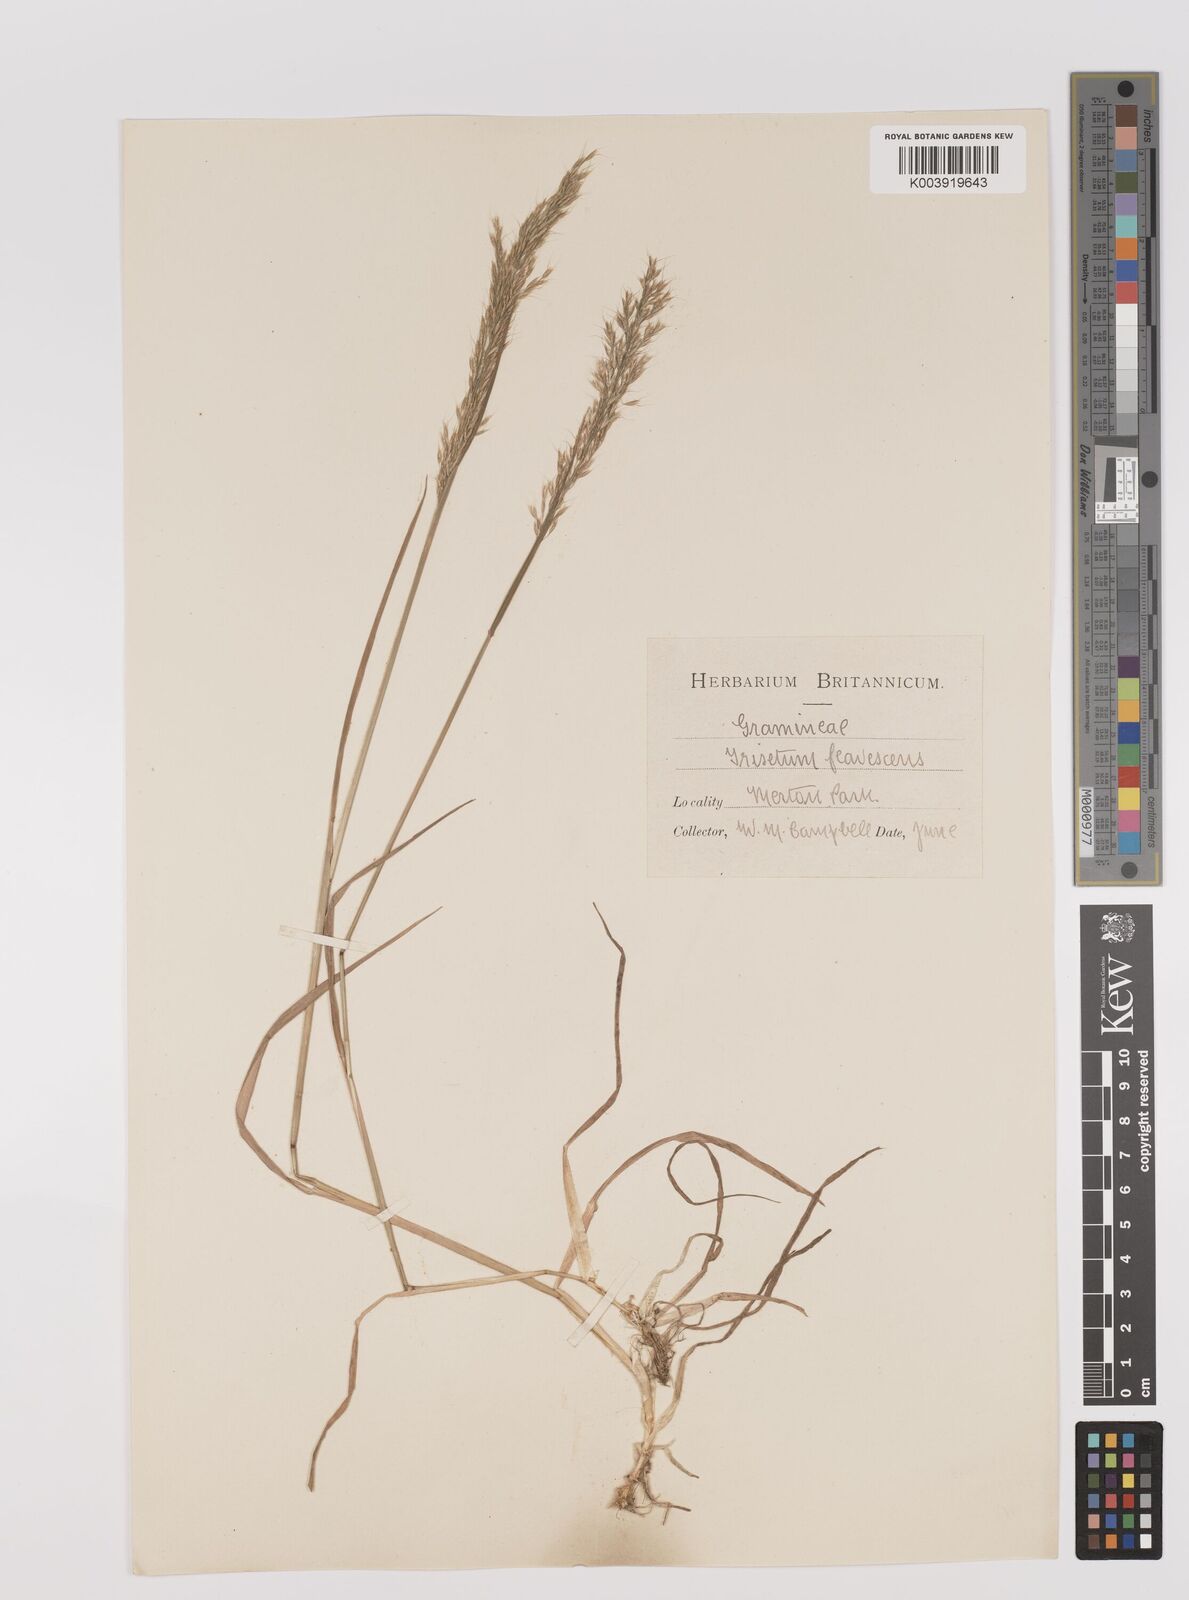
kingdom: Plantae
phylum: Tracheophyta
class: Liliopsida
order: Poales
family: Poaceae
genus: Trisetum
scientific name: Trisetum flavescens
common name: Yellow oat-grass
